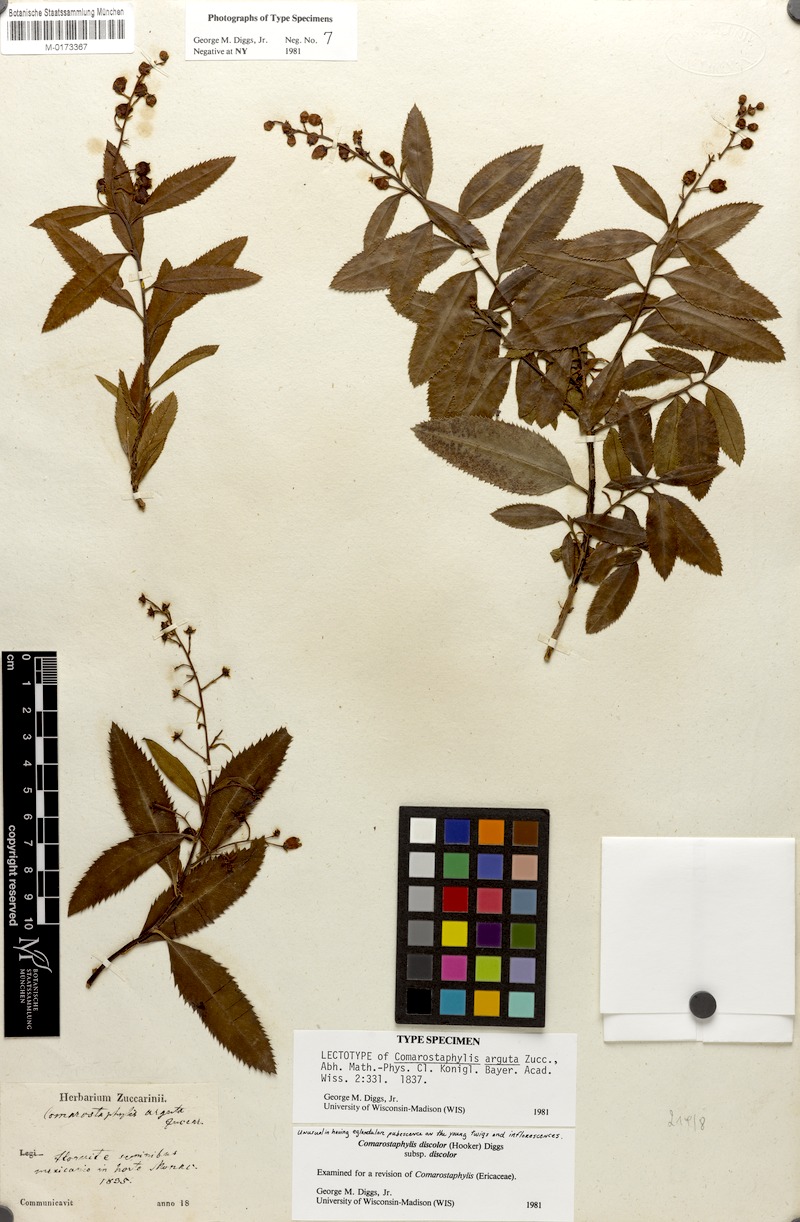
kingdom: Plantae
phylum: Tracheophyta
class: Magnoliopsida
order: Ericales
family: Ericaceae
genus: Comarostaphylis
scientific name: Comarostaphylis discolor
